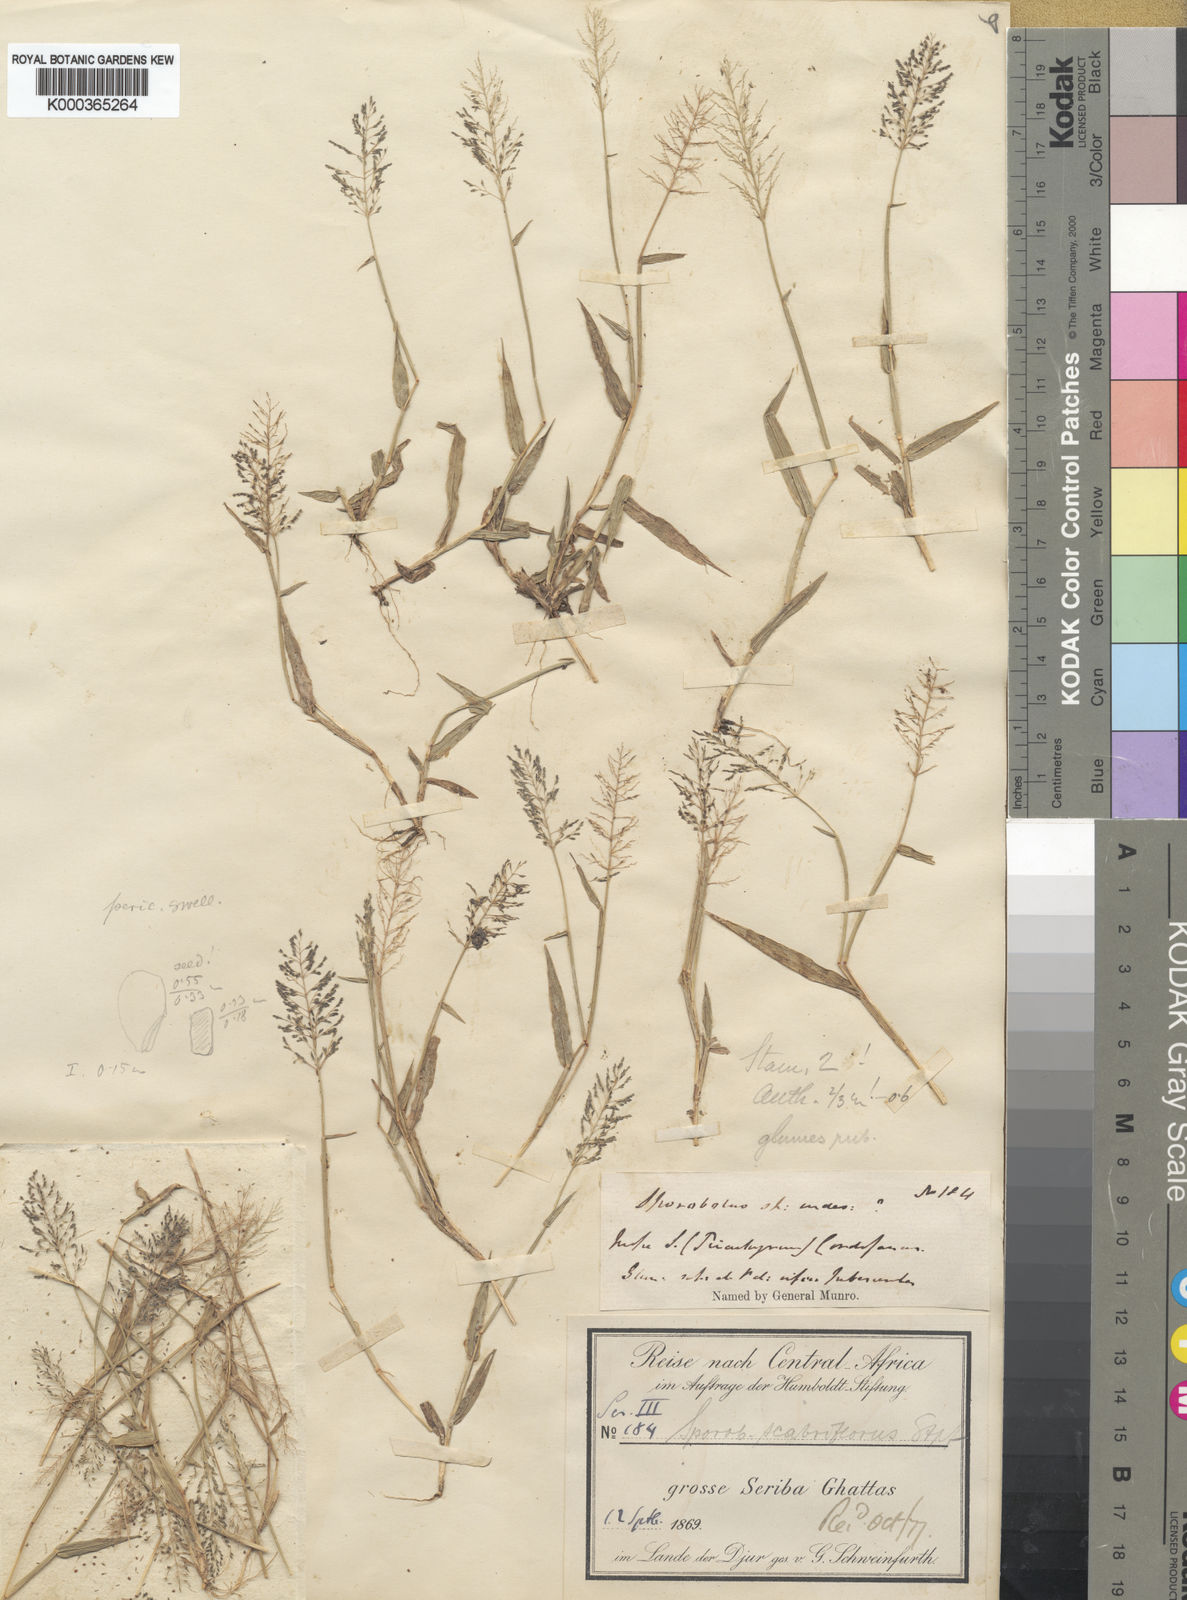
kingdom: Plantae
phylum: Tracheophyta
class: Liliopsida
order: Poales
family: Poaceae
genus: Sporobolus
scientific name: Sporobolus microprotus
